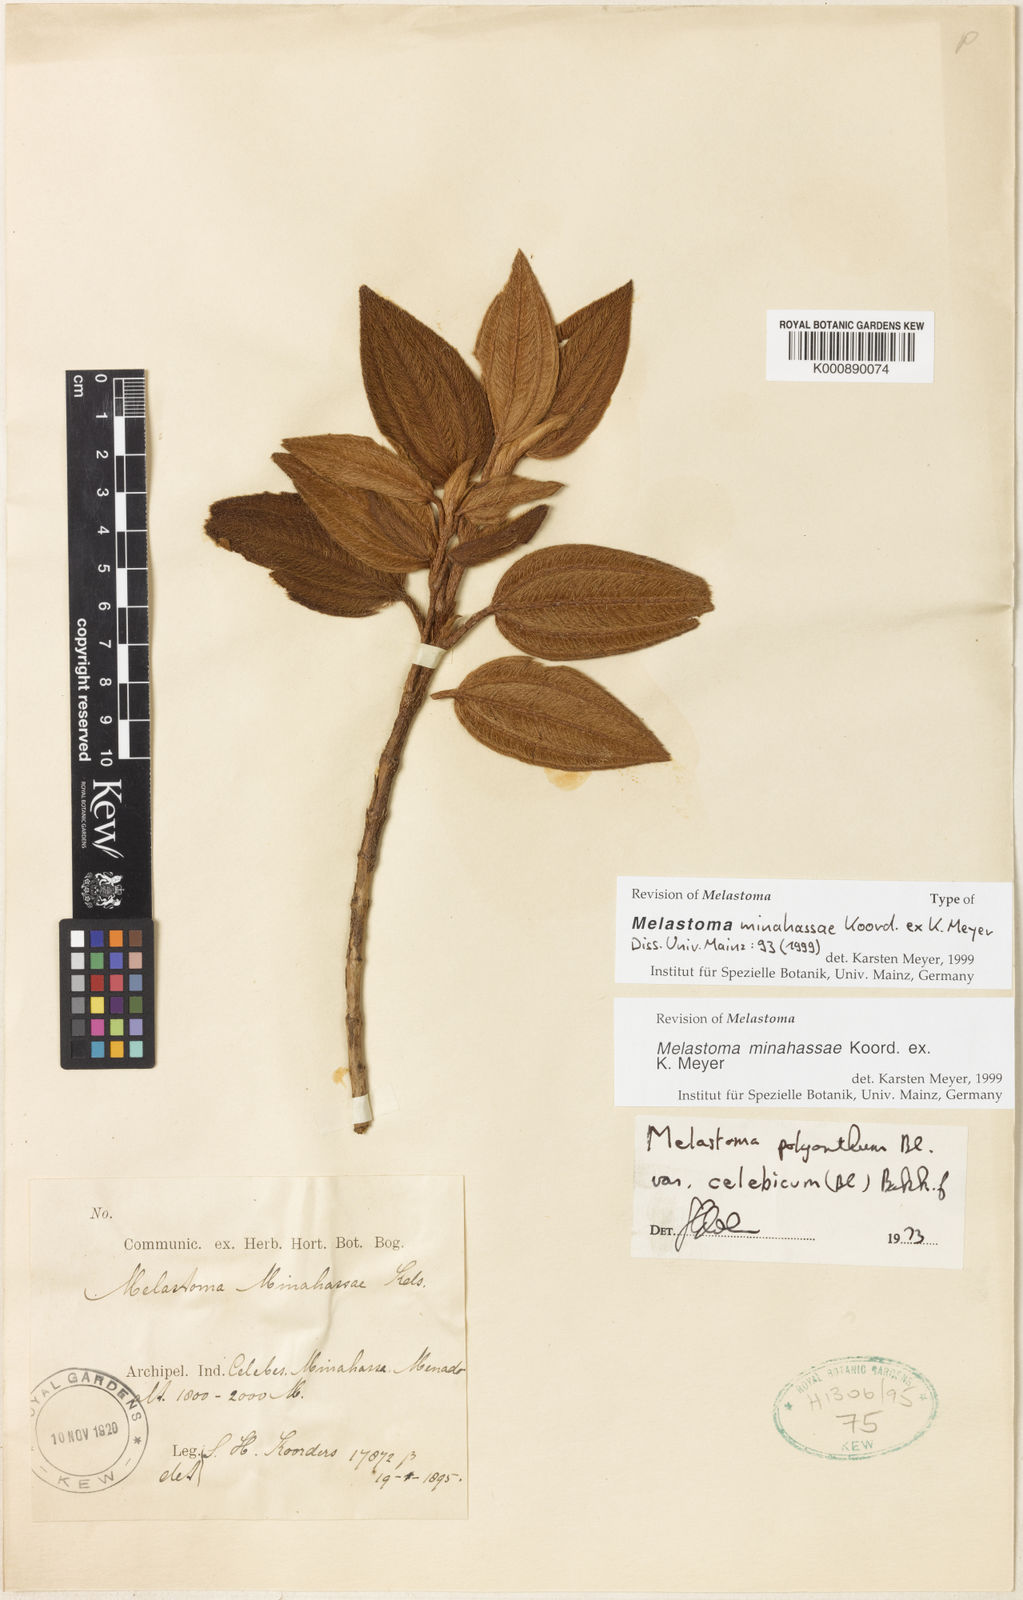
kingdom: Plantae
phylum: Tracheophyta
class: Magnoliopsida
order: Myrtales
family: Melastomataceae
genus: Melastoma
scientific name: Melastoma minahassae
